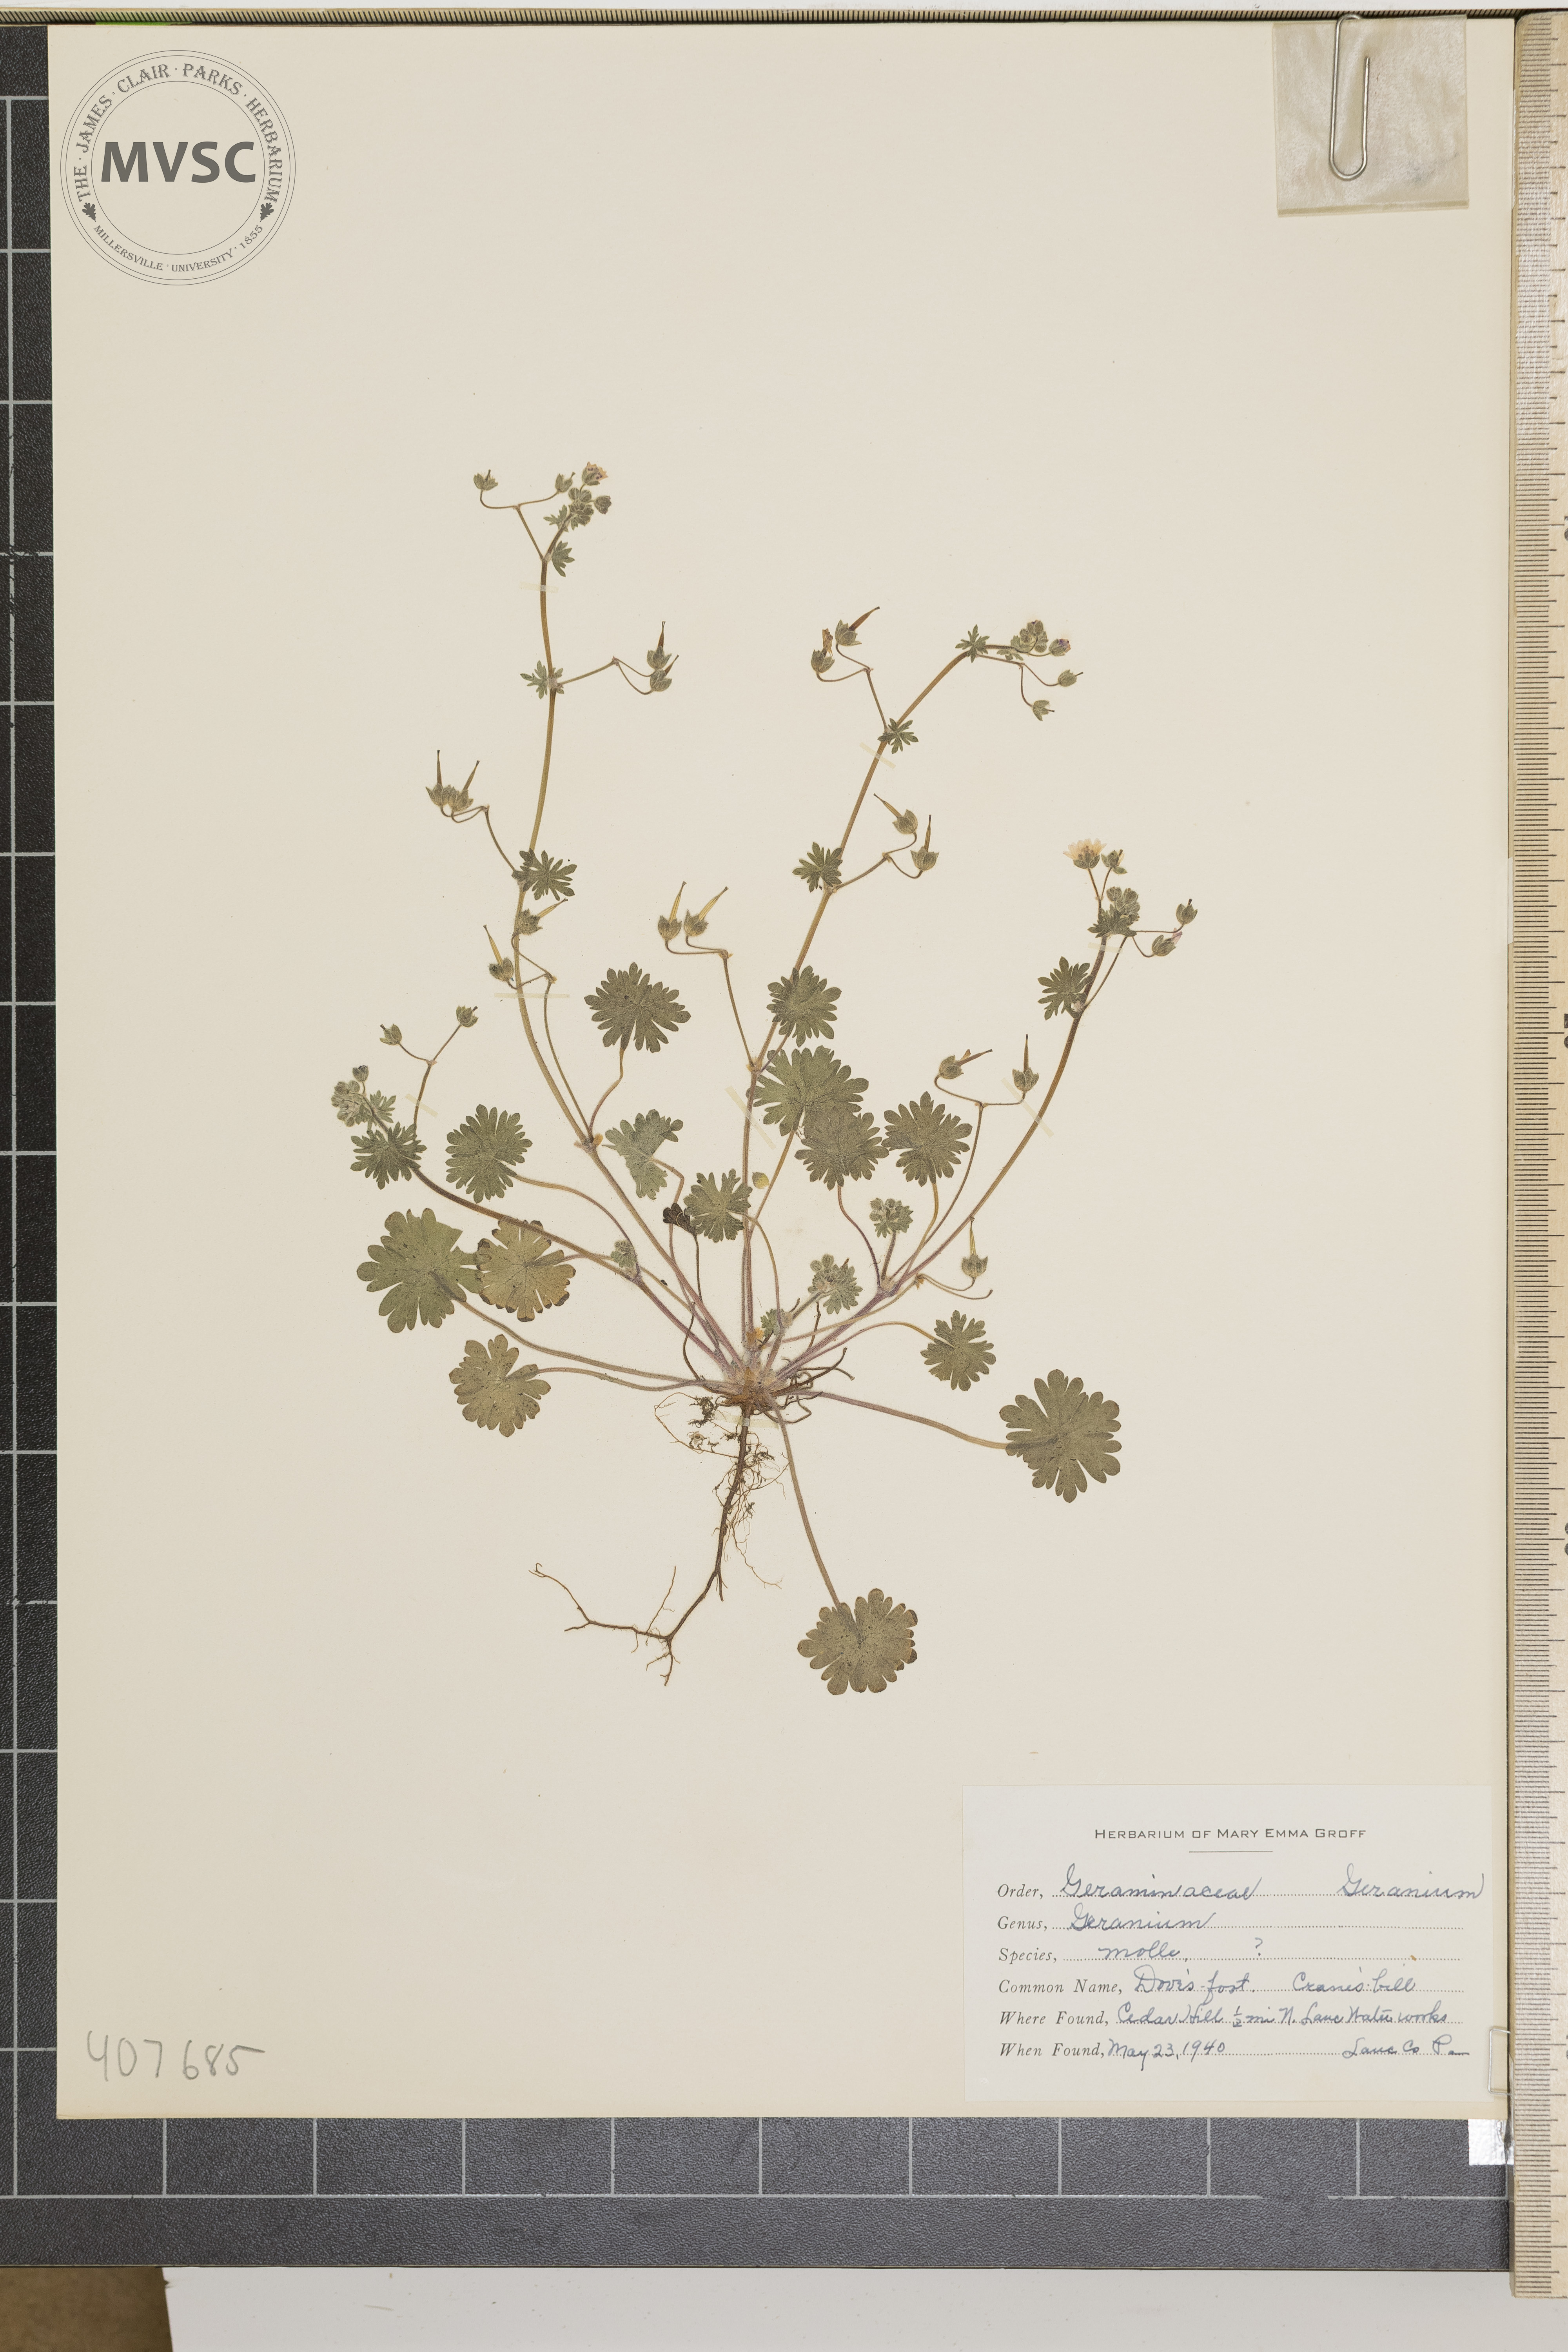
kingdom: Plantae
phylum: Tracheophyta
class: Magnoliopsida
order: Geraniales
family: Geraniaceae
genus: Geranium
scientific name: Geranium molle
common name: Dove's-foot crane's-bill
